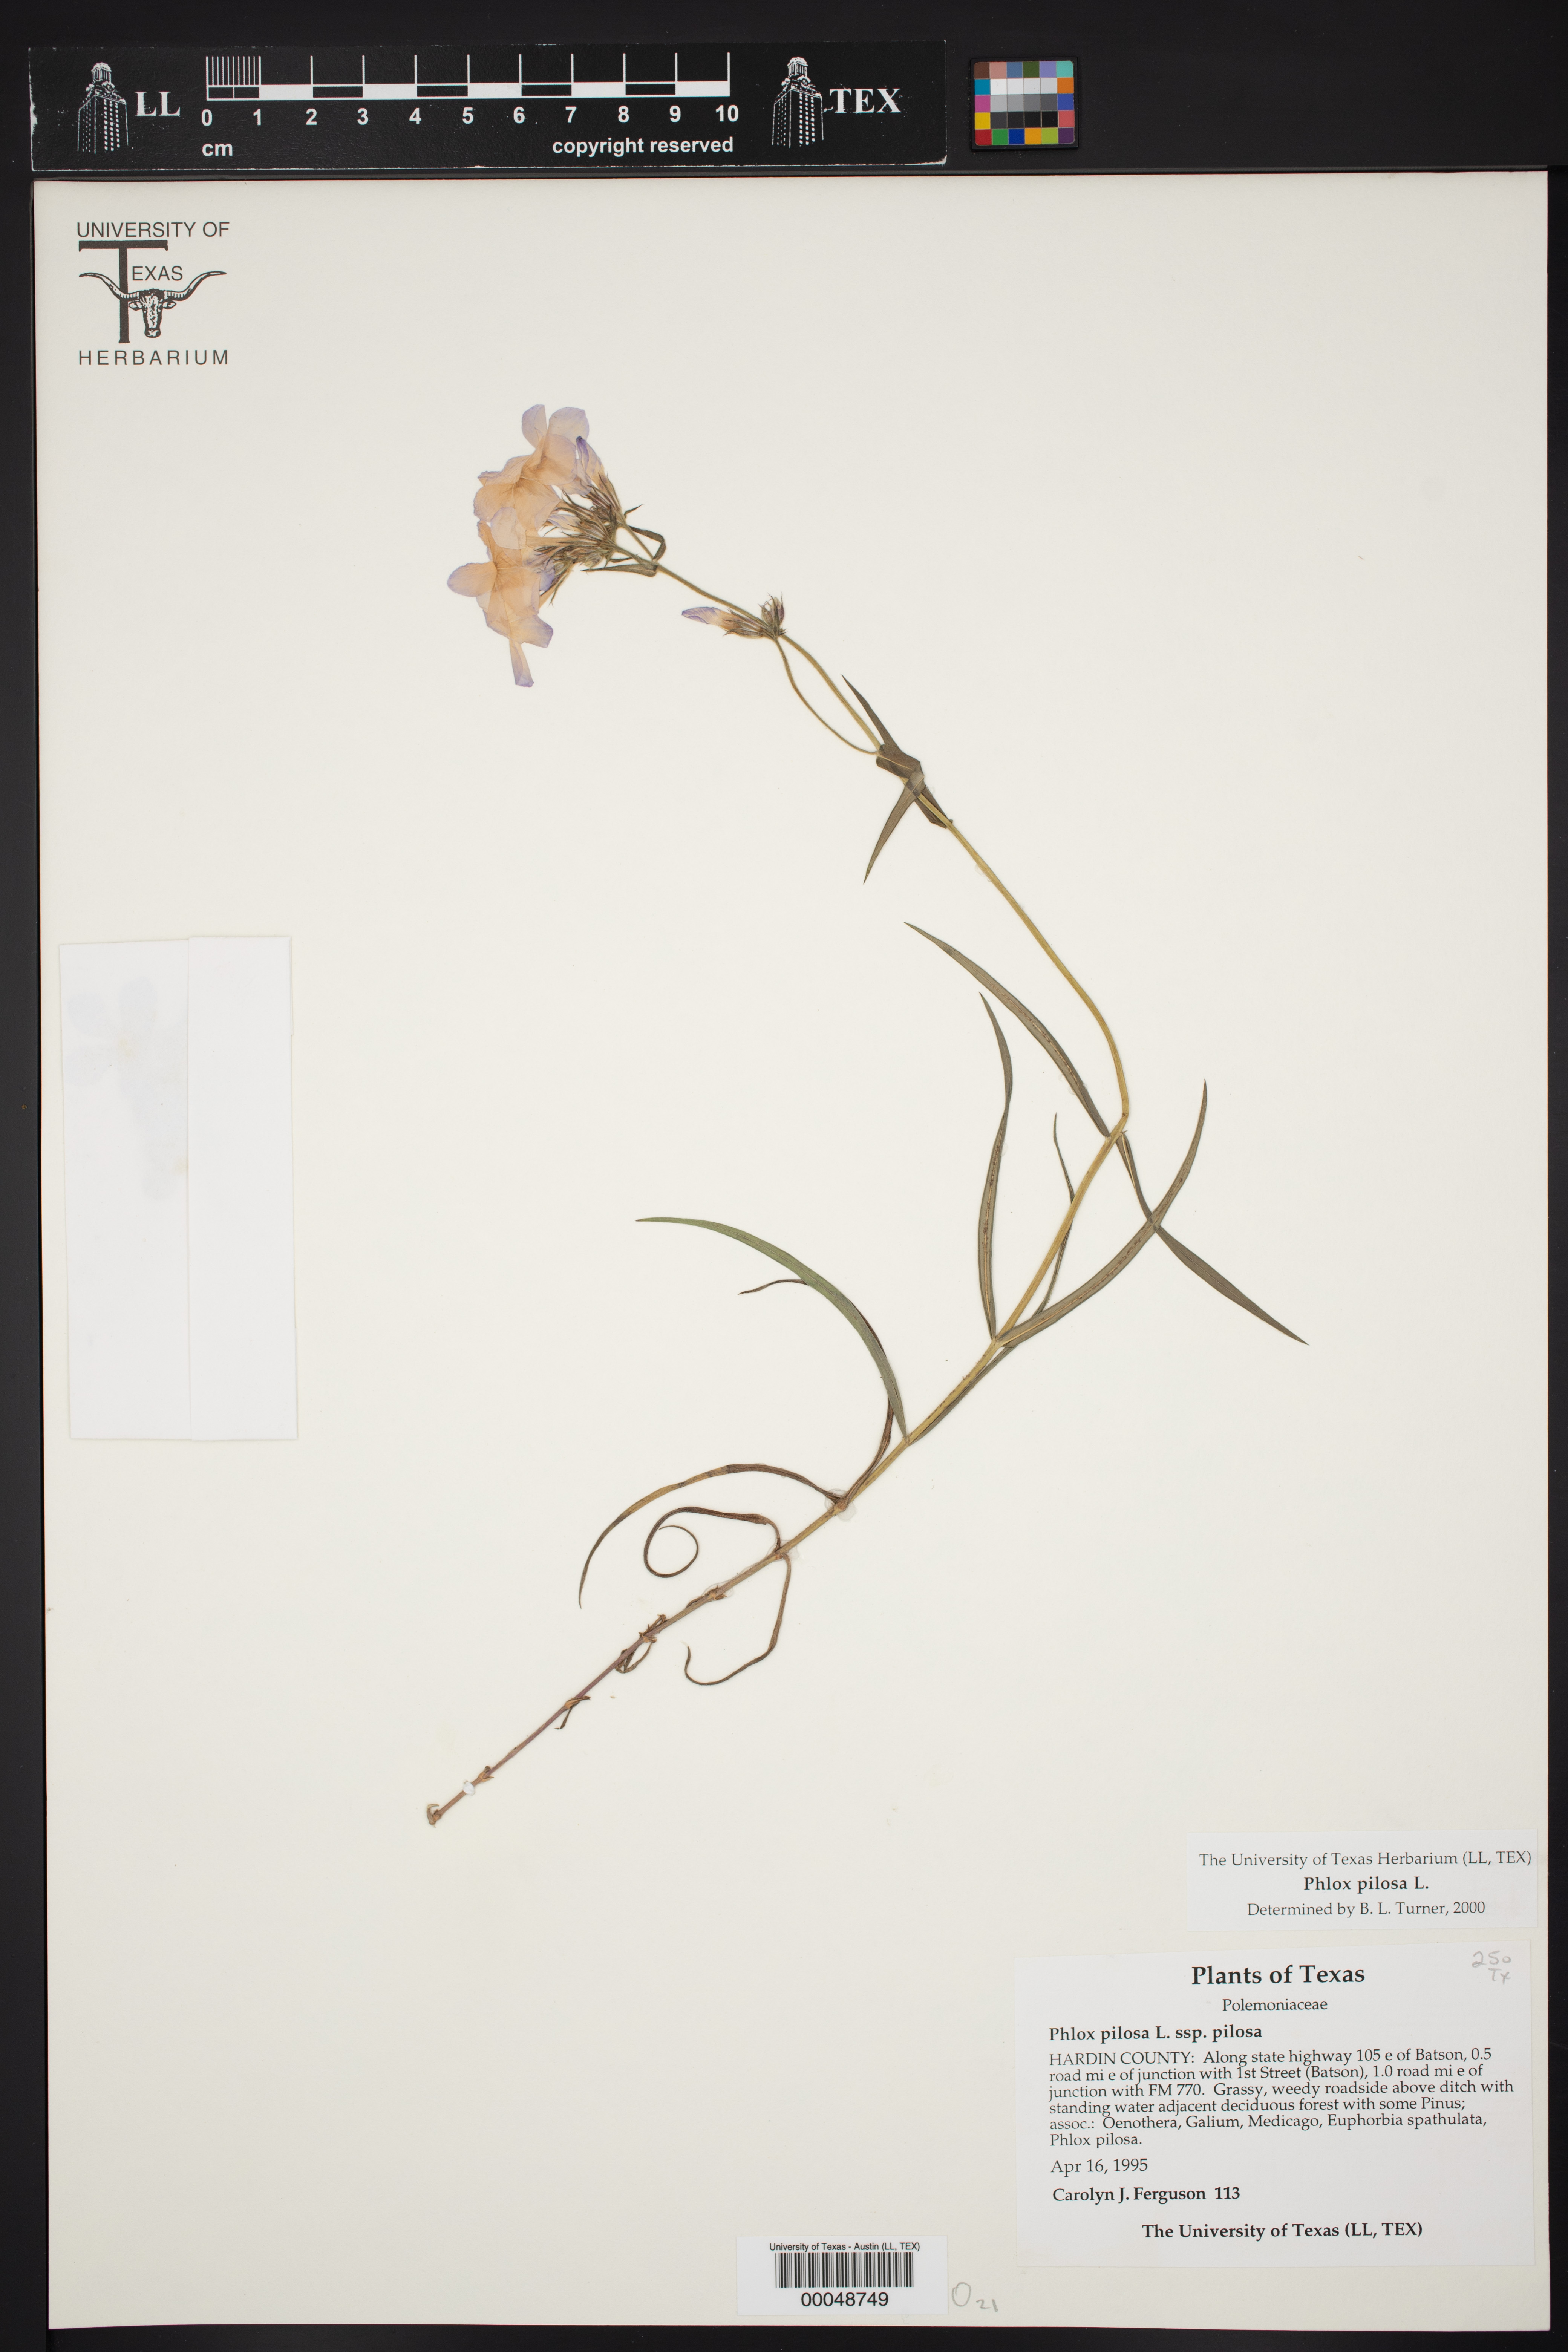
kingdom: Plantae
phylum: Tracheophyta
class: Magnoliopsida
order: Ericales
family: Polemoniaceae
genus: Phlox
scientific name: Phlox pilosa
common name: Prairie phlox
